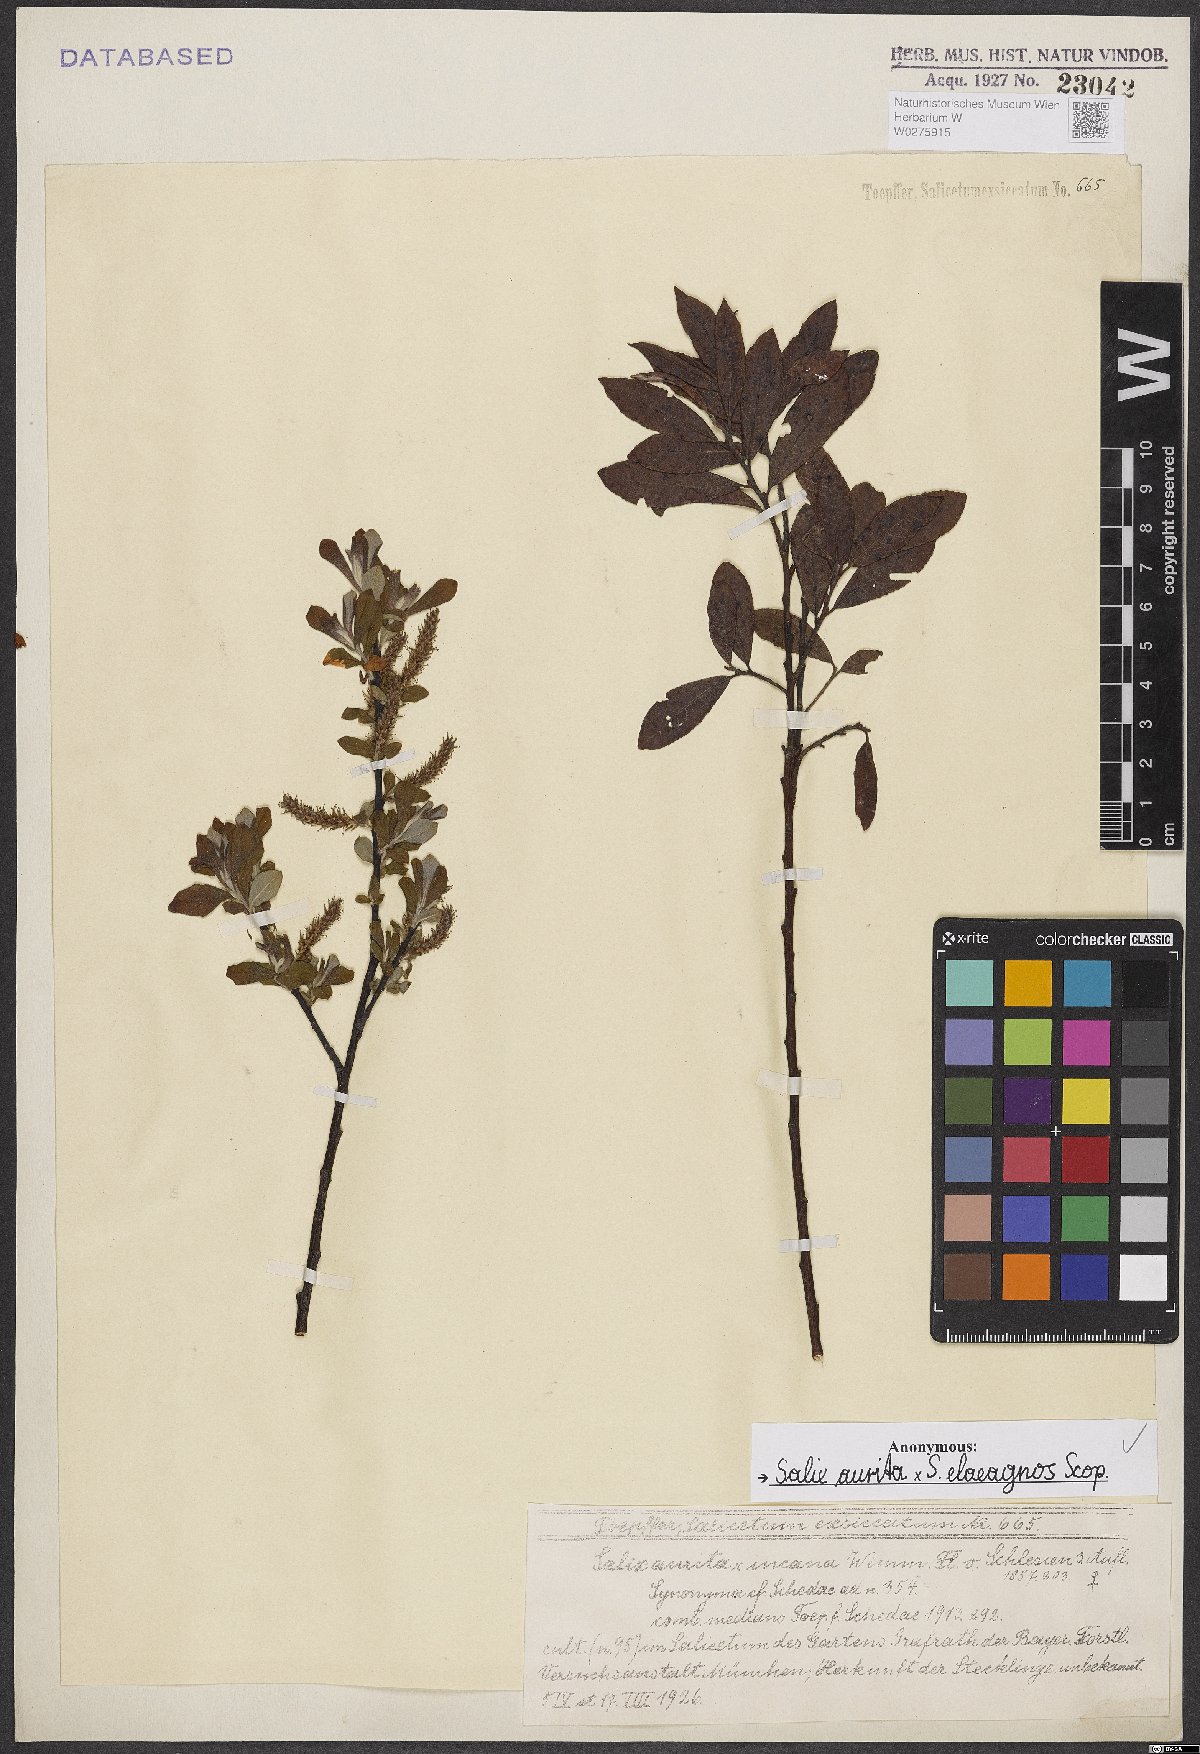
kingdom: Plantae
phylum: Tracheophyta
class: Magnoliopsida
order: Malpighiales
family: Salicaceae
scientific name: Salicaceae
